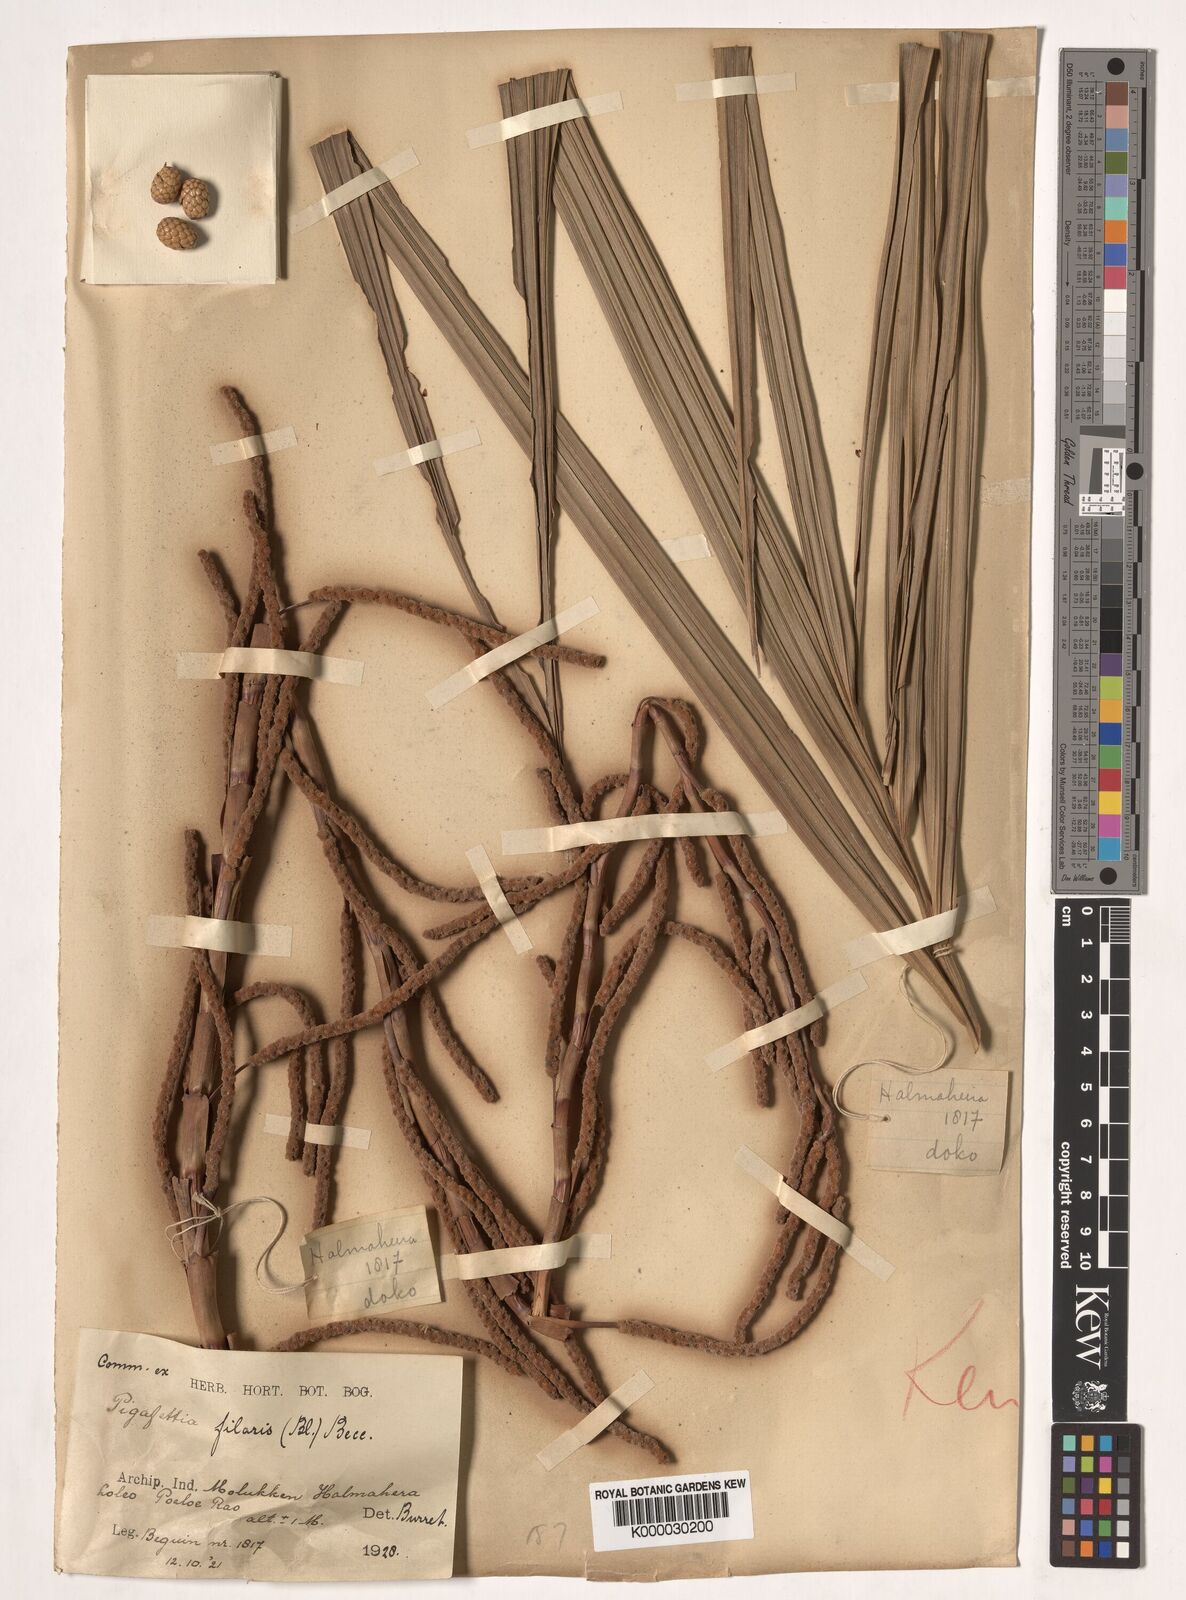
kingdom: Plantae
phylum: Tracheophyta
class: Liliopsida
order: Arecales
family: Arecaceae
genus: Pigafetta
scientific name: Pigafetta filaris
